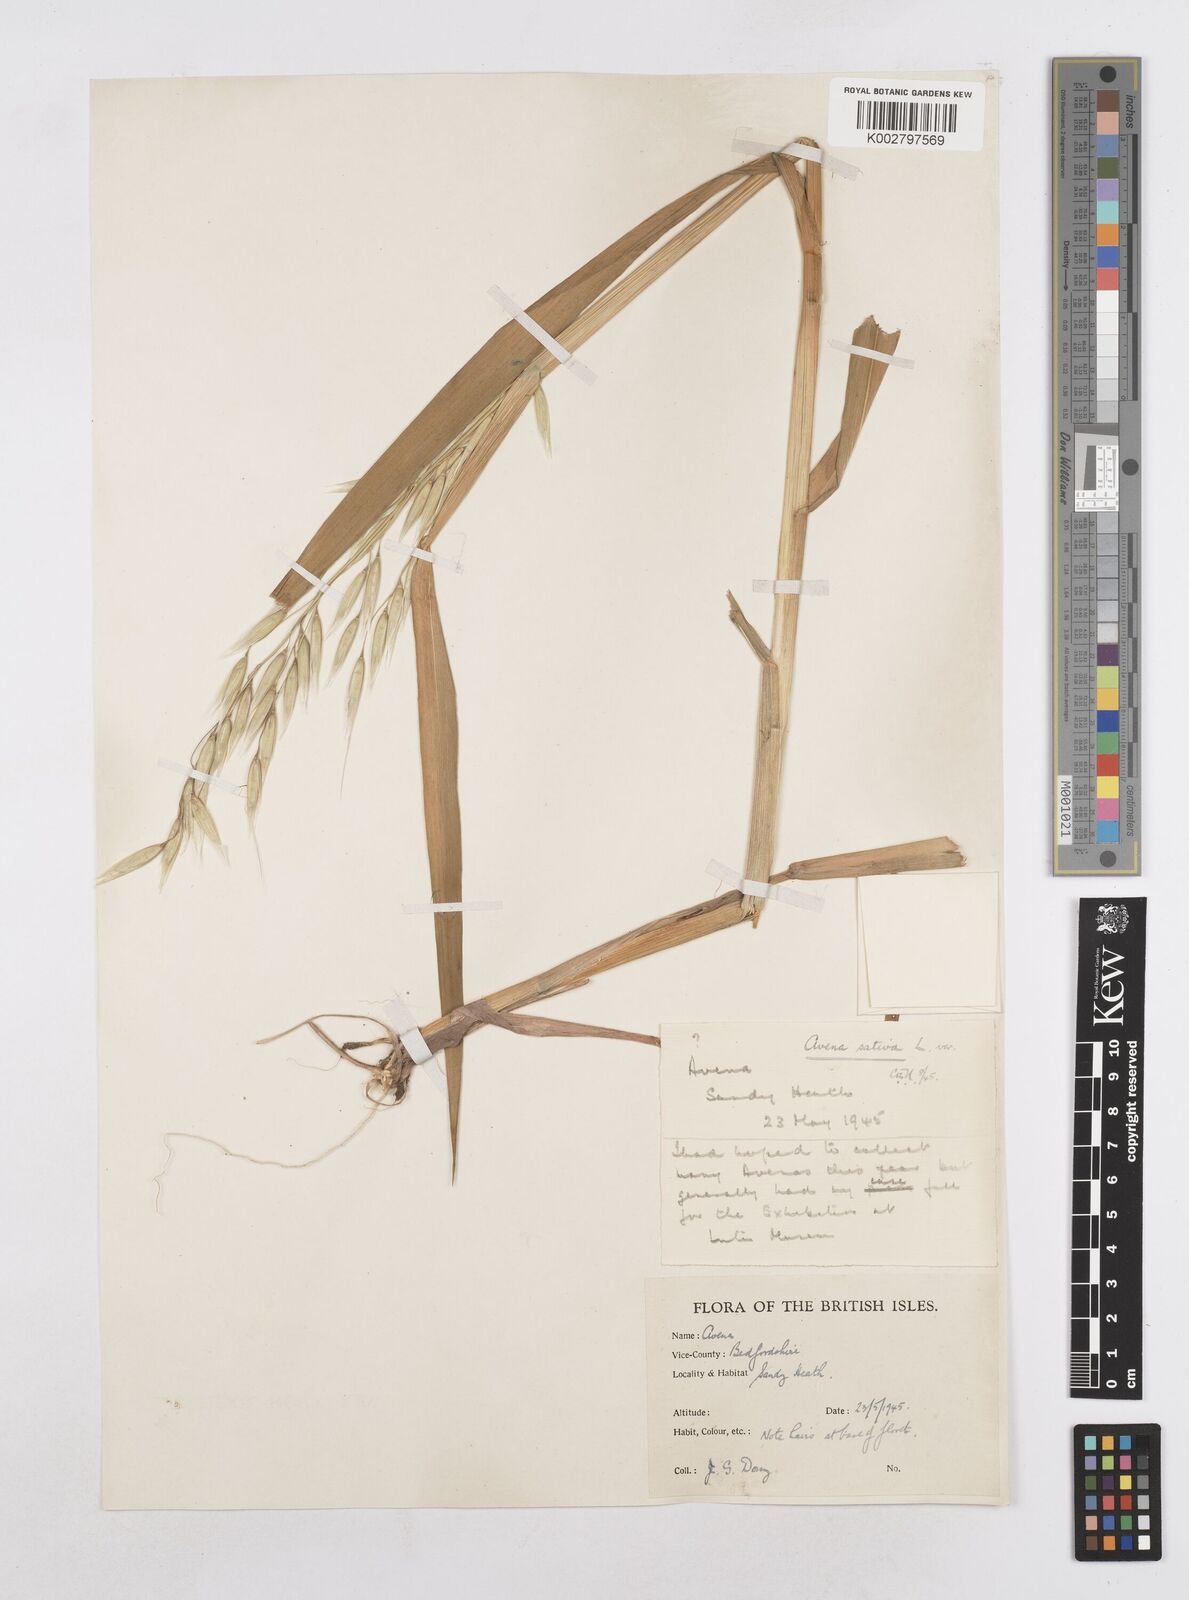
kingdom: Plantae
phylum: Tracheophyta
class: Liliopsida
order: Poales
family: Poaceae
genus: Avena
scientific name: Avena sativa
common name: Oat
